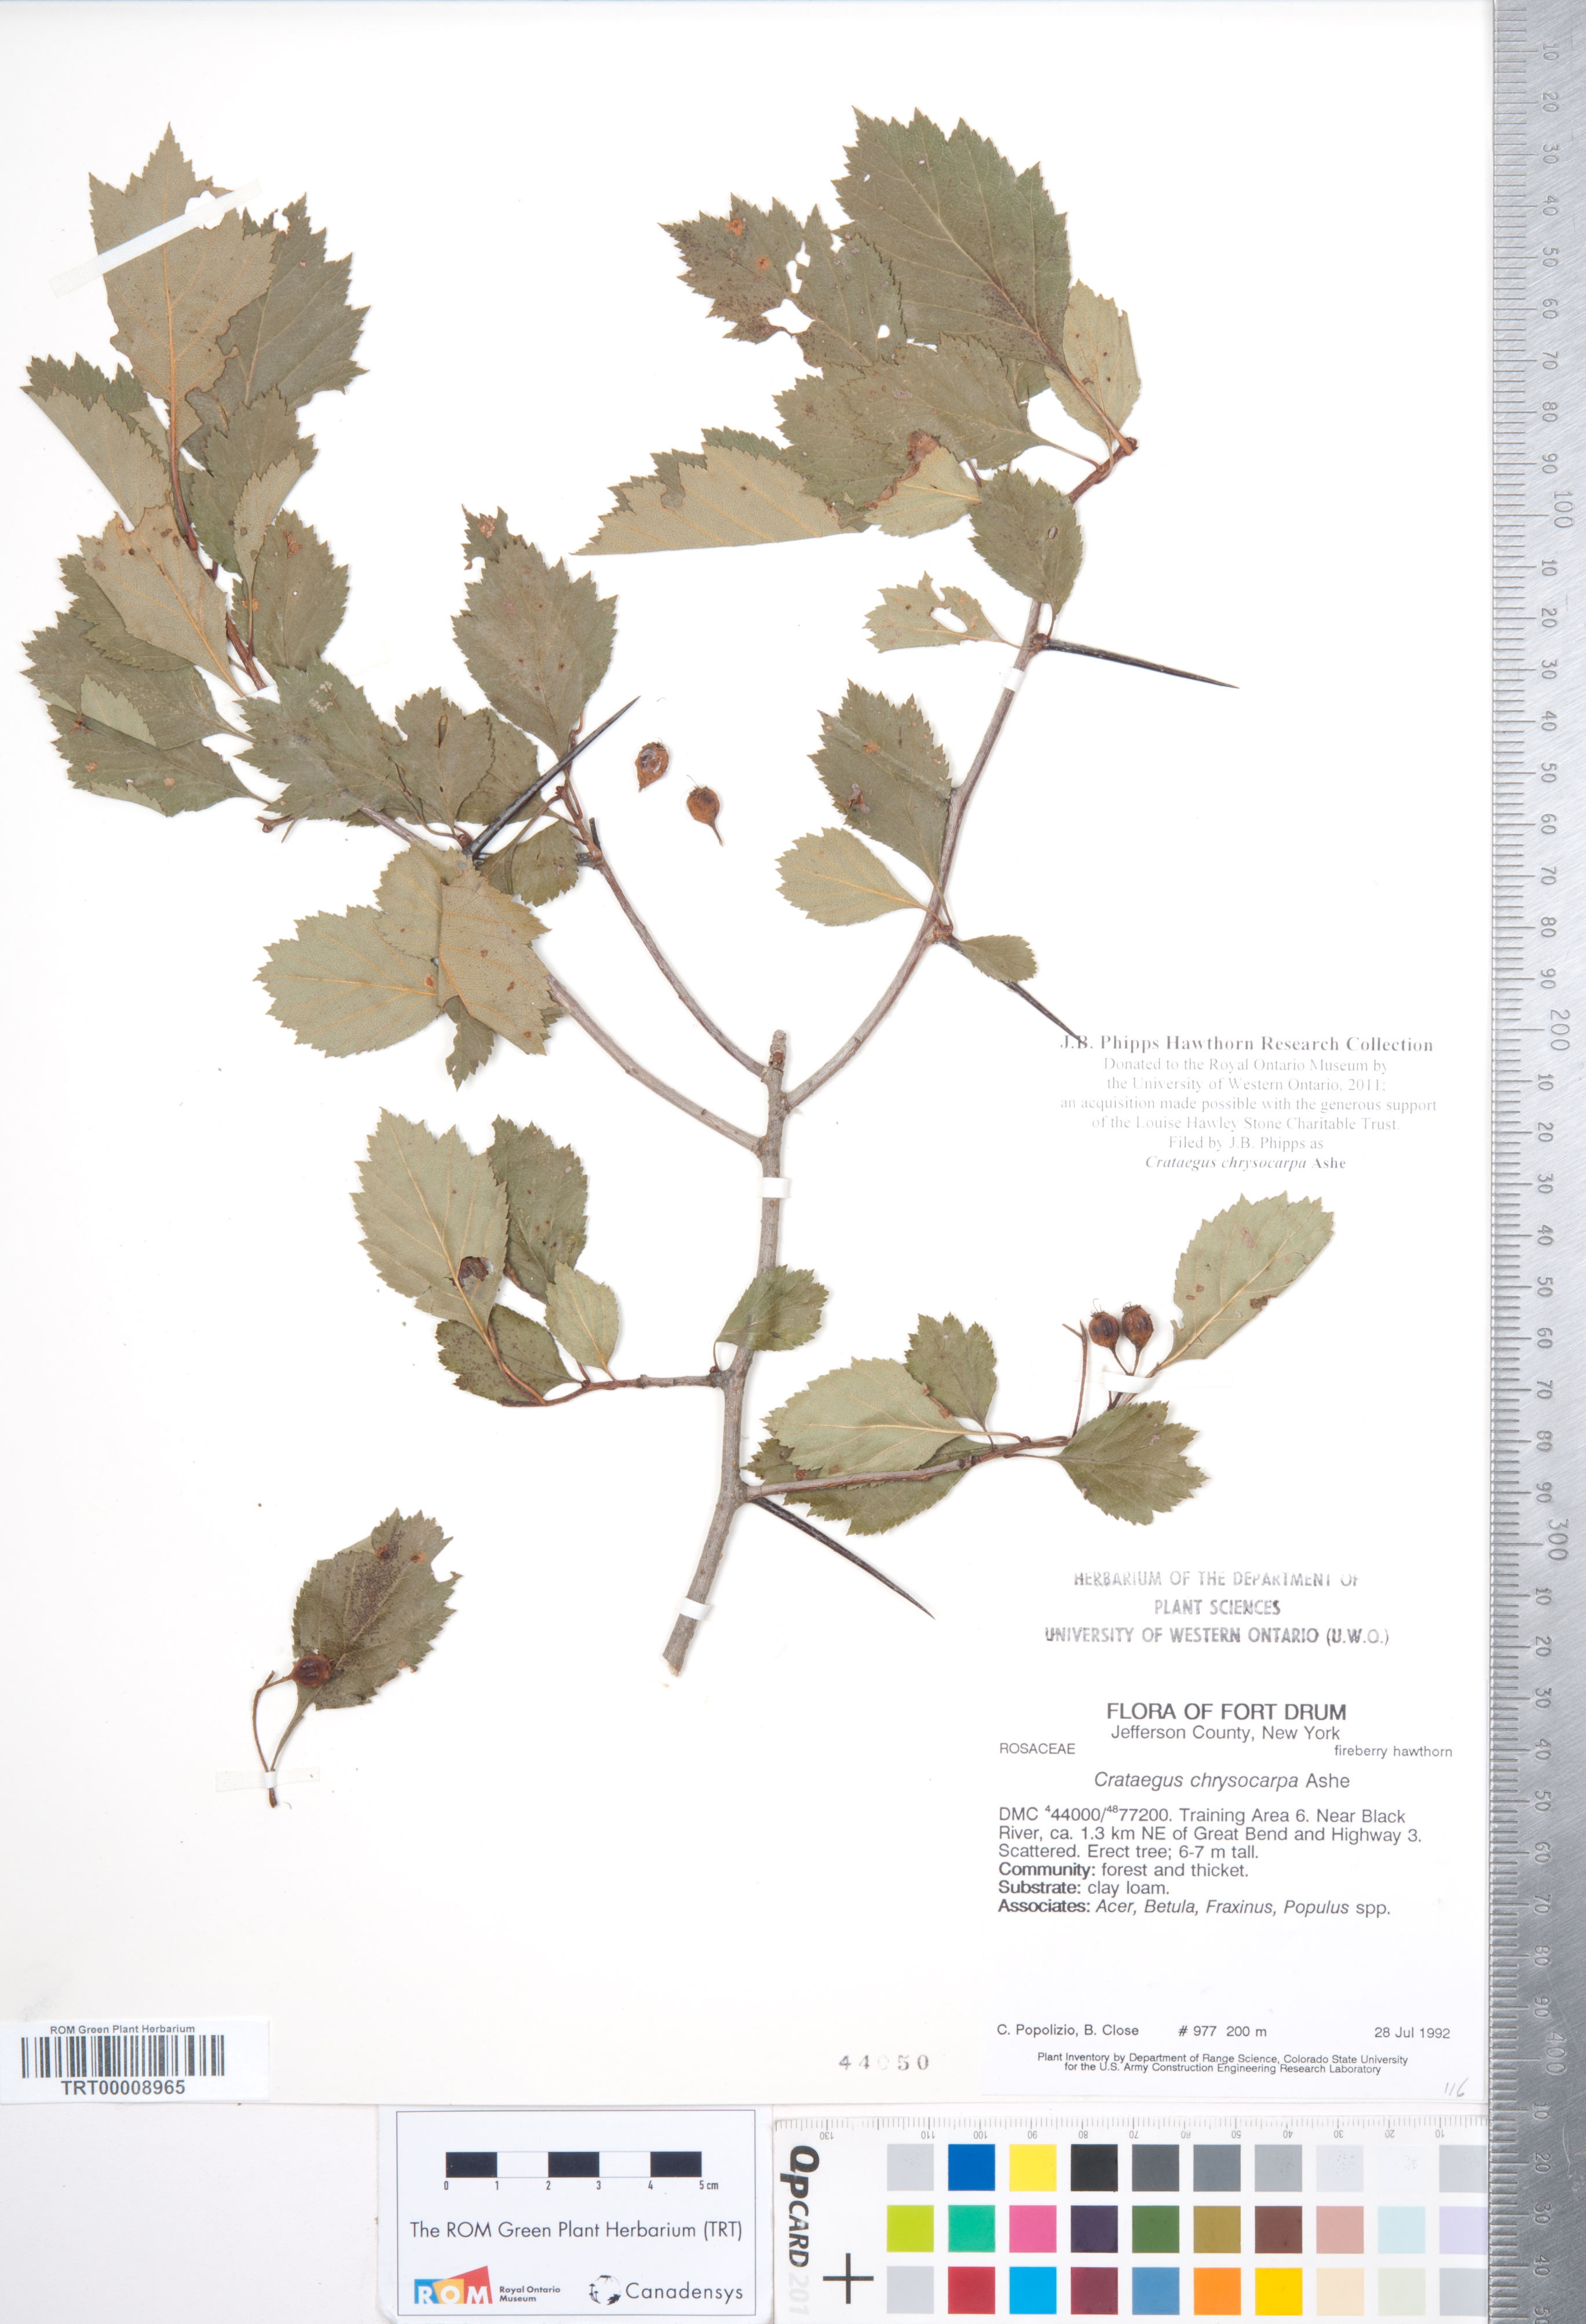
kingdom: Plantae
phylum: Tracheophyta
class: Magnoliopsida
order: Rosales
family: Rosaceae
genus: Crataegus
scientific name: Crataegus chrysocarpa
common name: Fire-berry hawthorn
